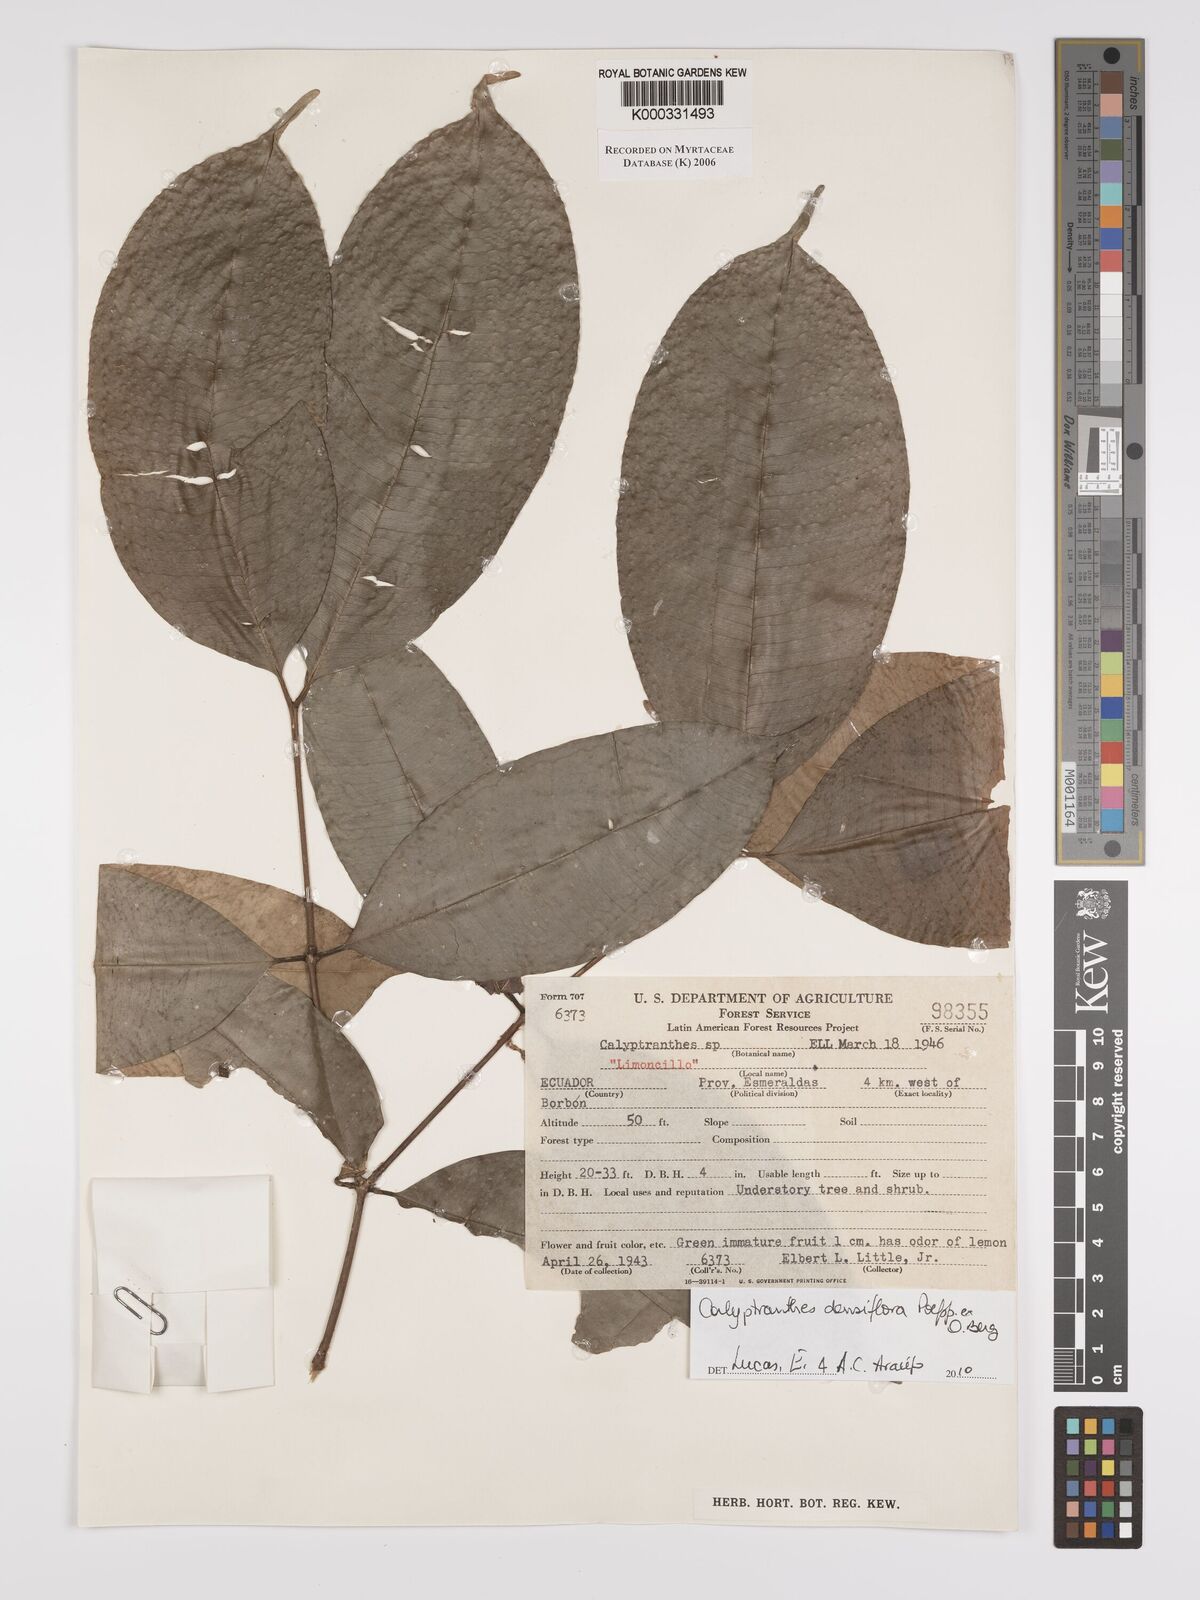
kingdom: Plantae
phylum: Tracheophyta
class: Magnoliopsida
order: Myrtales
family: Myrtaceae
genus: Calyptranthes
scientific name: Calyptranthes
